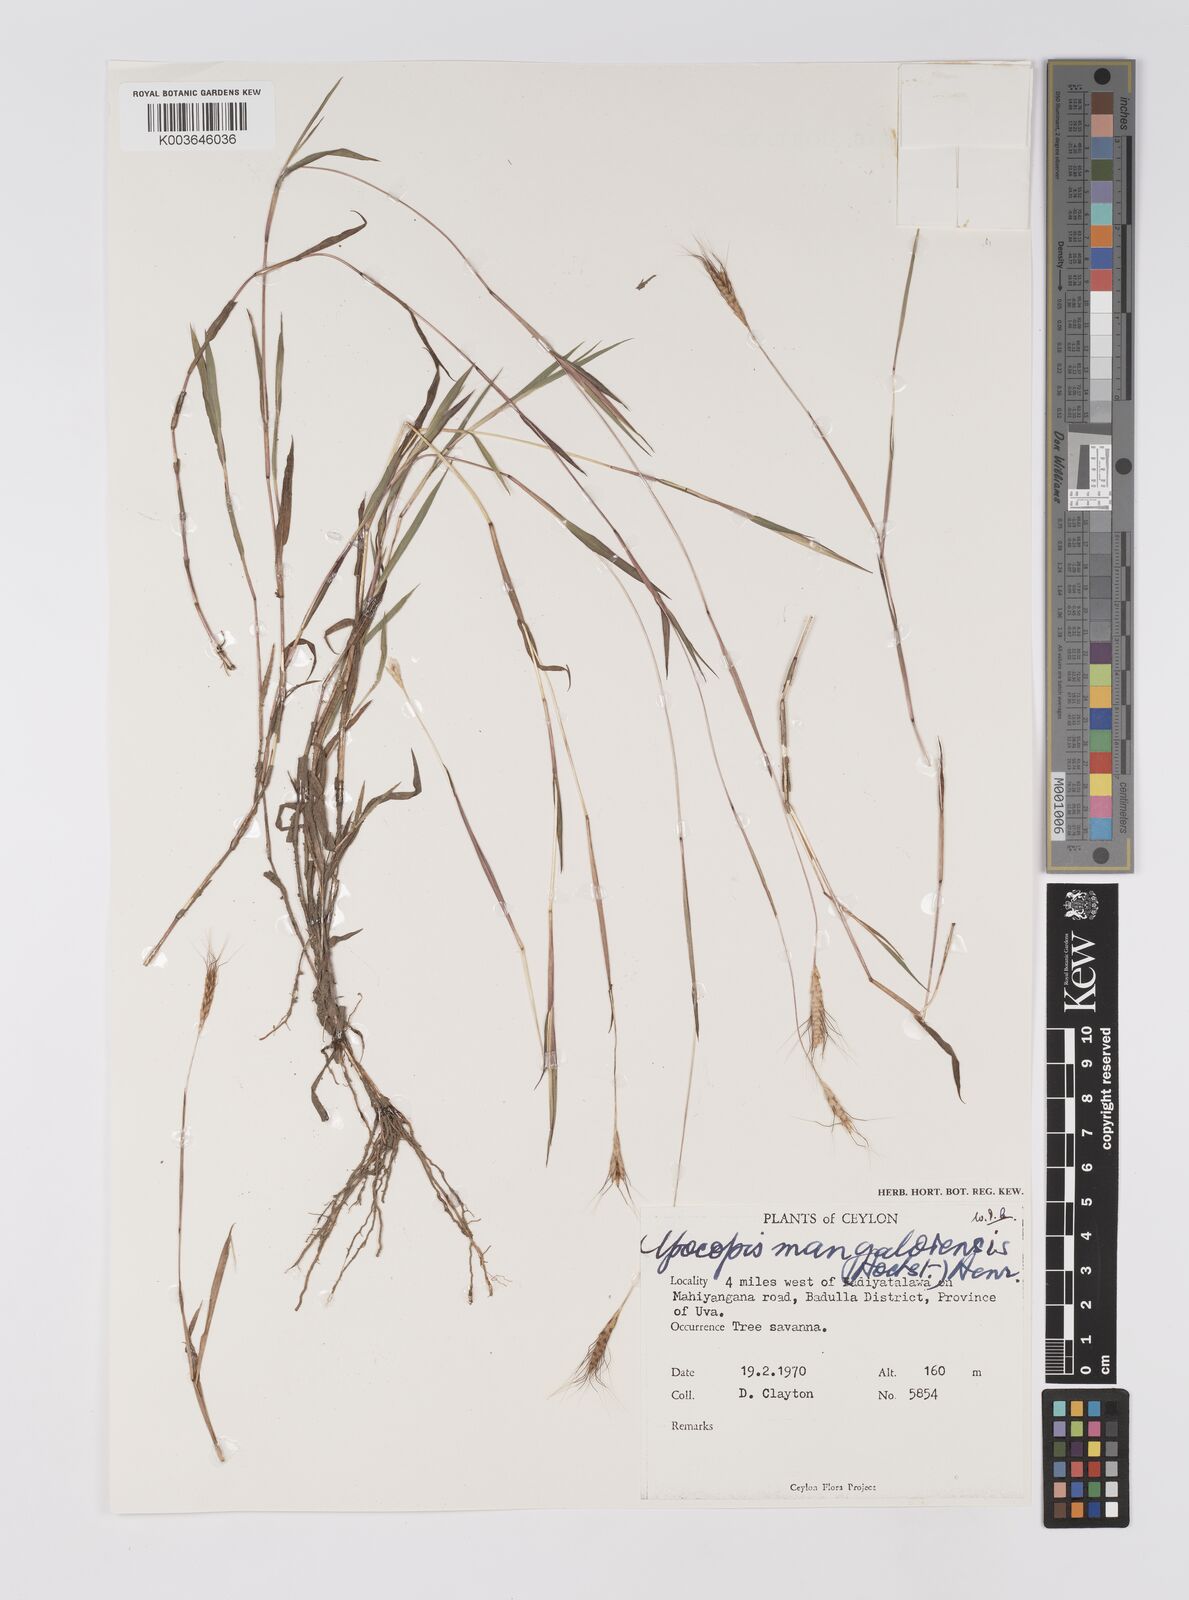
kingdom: Plantae
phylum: Tracheophyta
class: Liliopsida
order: Poales
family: Poaceae
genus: Apocopis
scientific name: Apocopis mangalorensis
